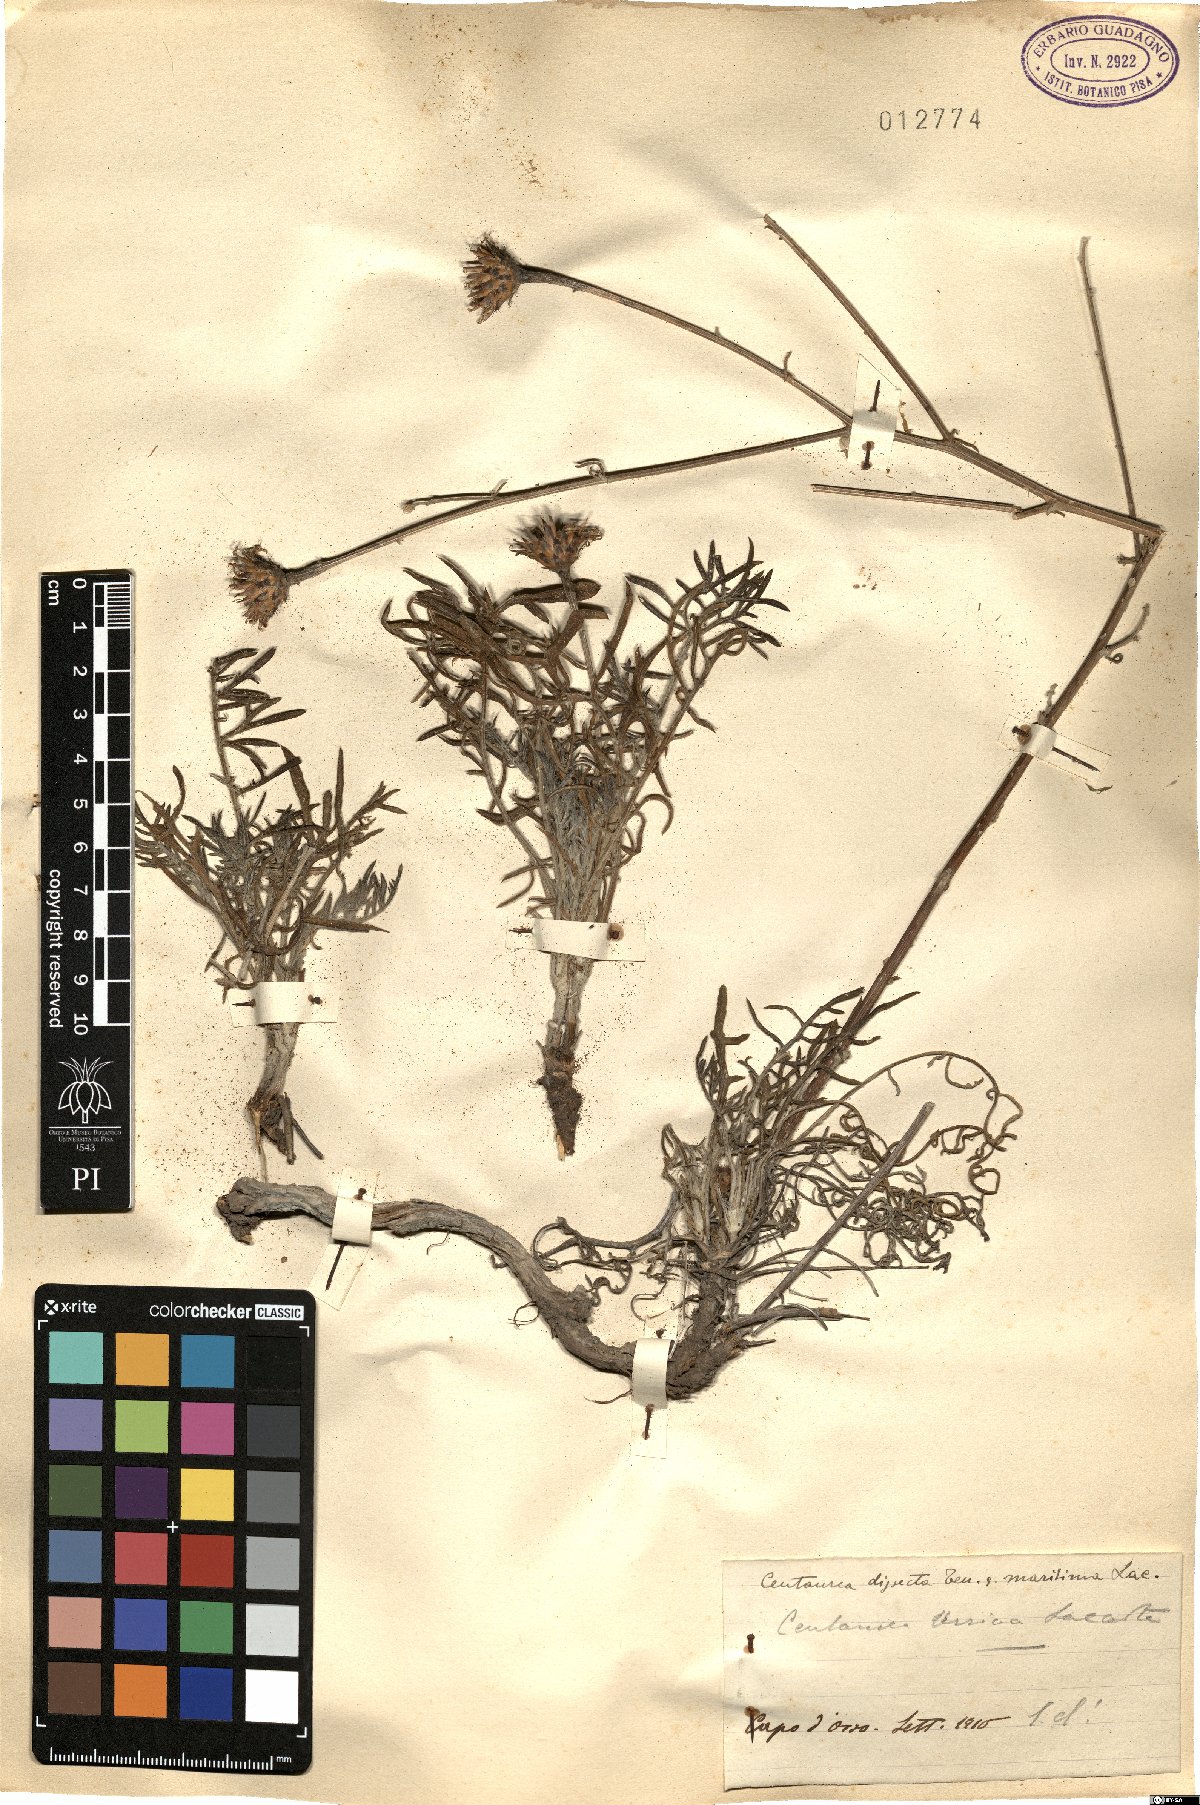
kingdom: Plantae
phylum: Tracheophyta
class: Magnoliopsida
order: Asterales
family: Asteraceae
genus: Centaurea
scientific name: Centaurea tenorei
